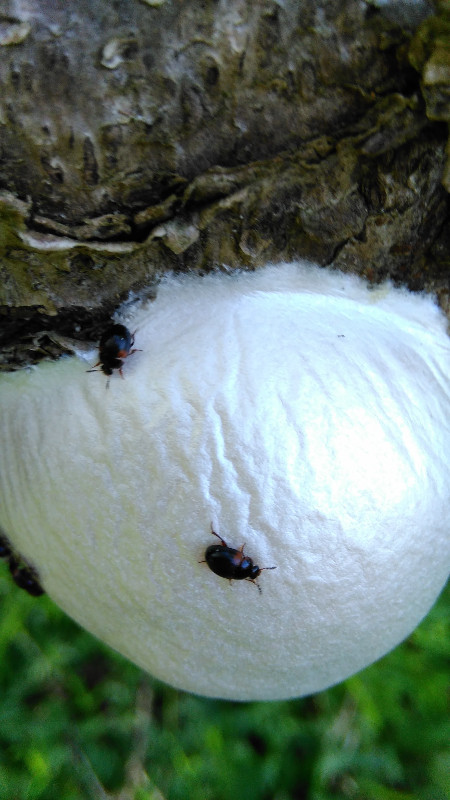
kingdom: Protozoa
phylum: Mycetozoa
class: Myxomycetes
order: Cribrariales
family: Tubiferaceae
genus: Reticularia
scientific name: Reticularia lycoperdon
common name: skinnende støvpude
